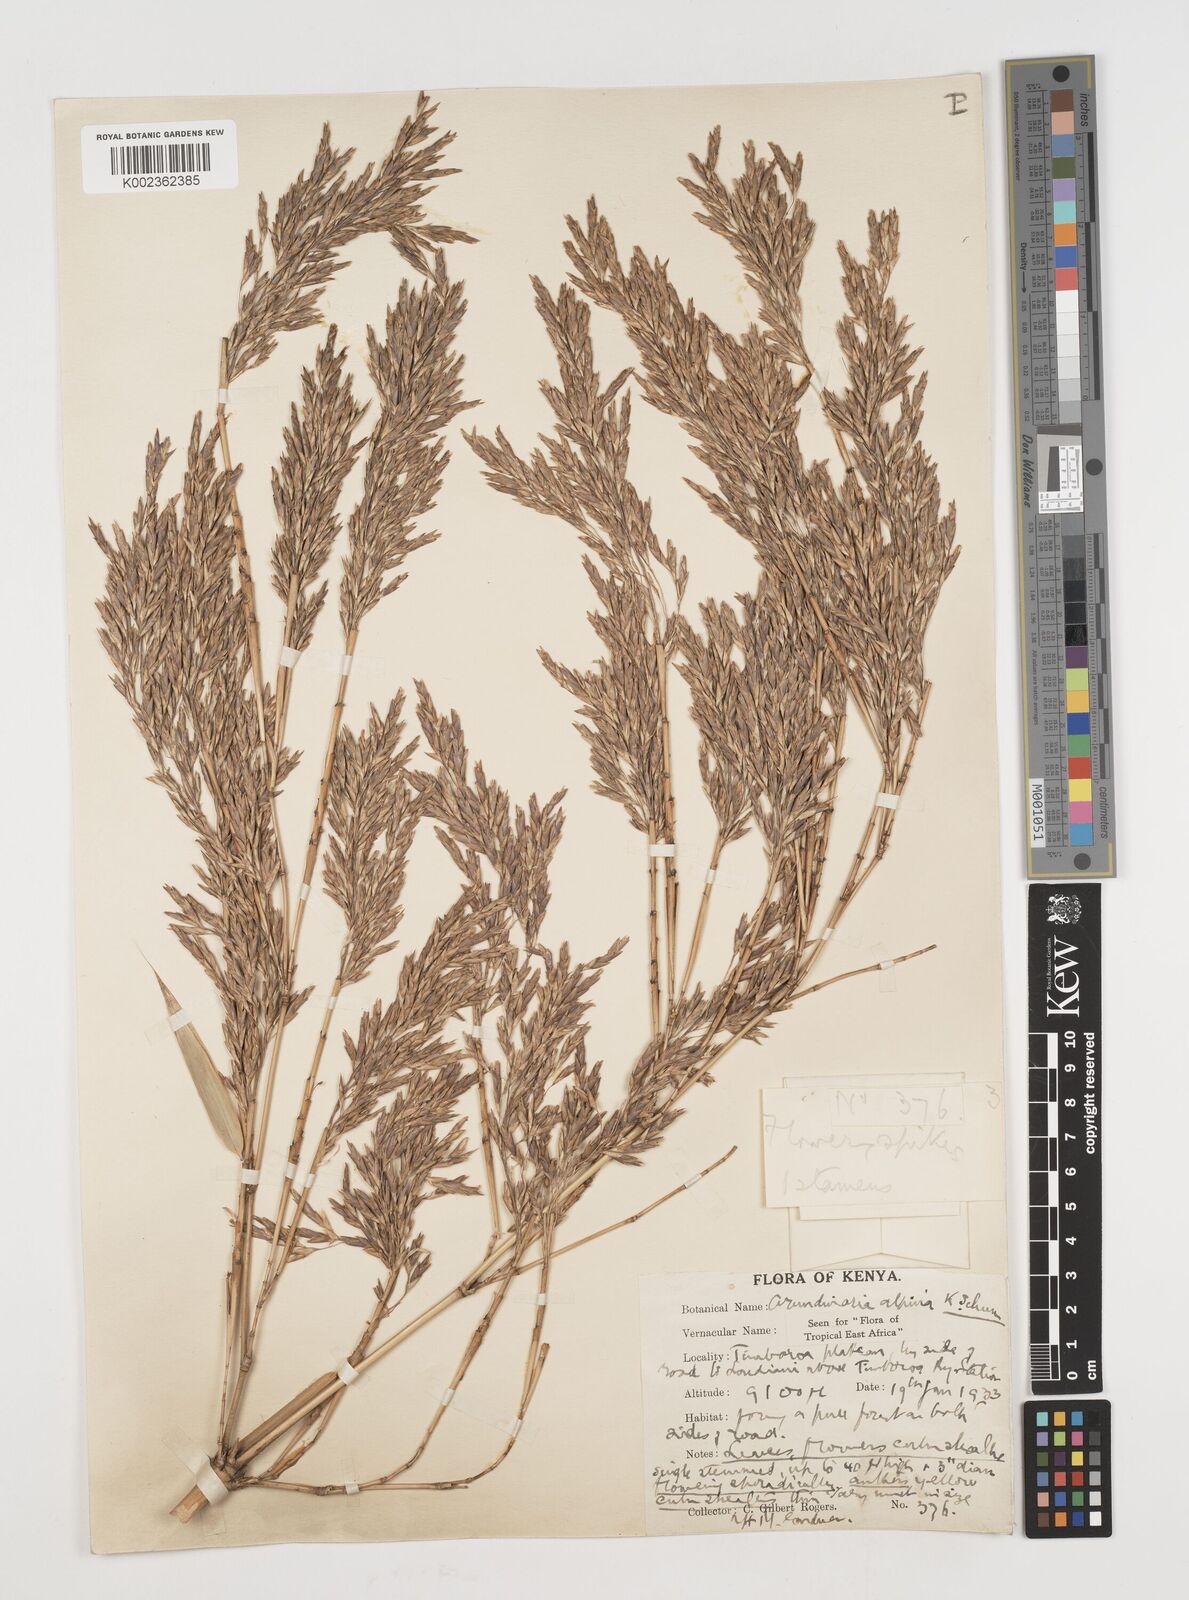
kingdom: Plantae
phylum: Tracheophyta
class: Liliopsida
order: Poales
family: Poaceae
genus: Oldeania
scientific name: Oldeania alpina
